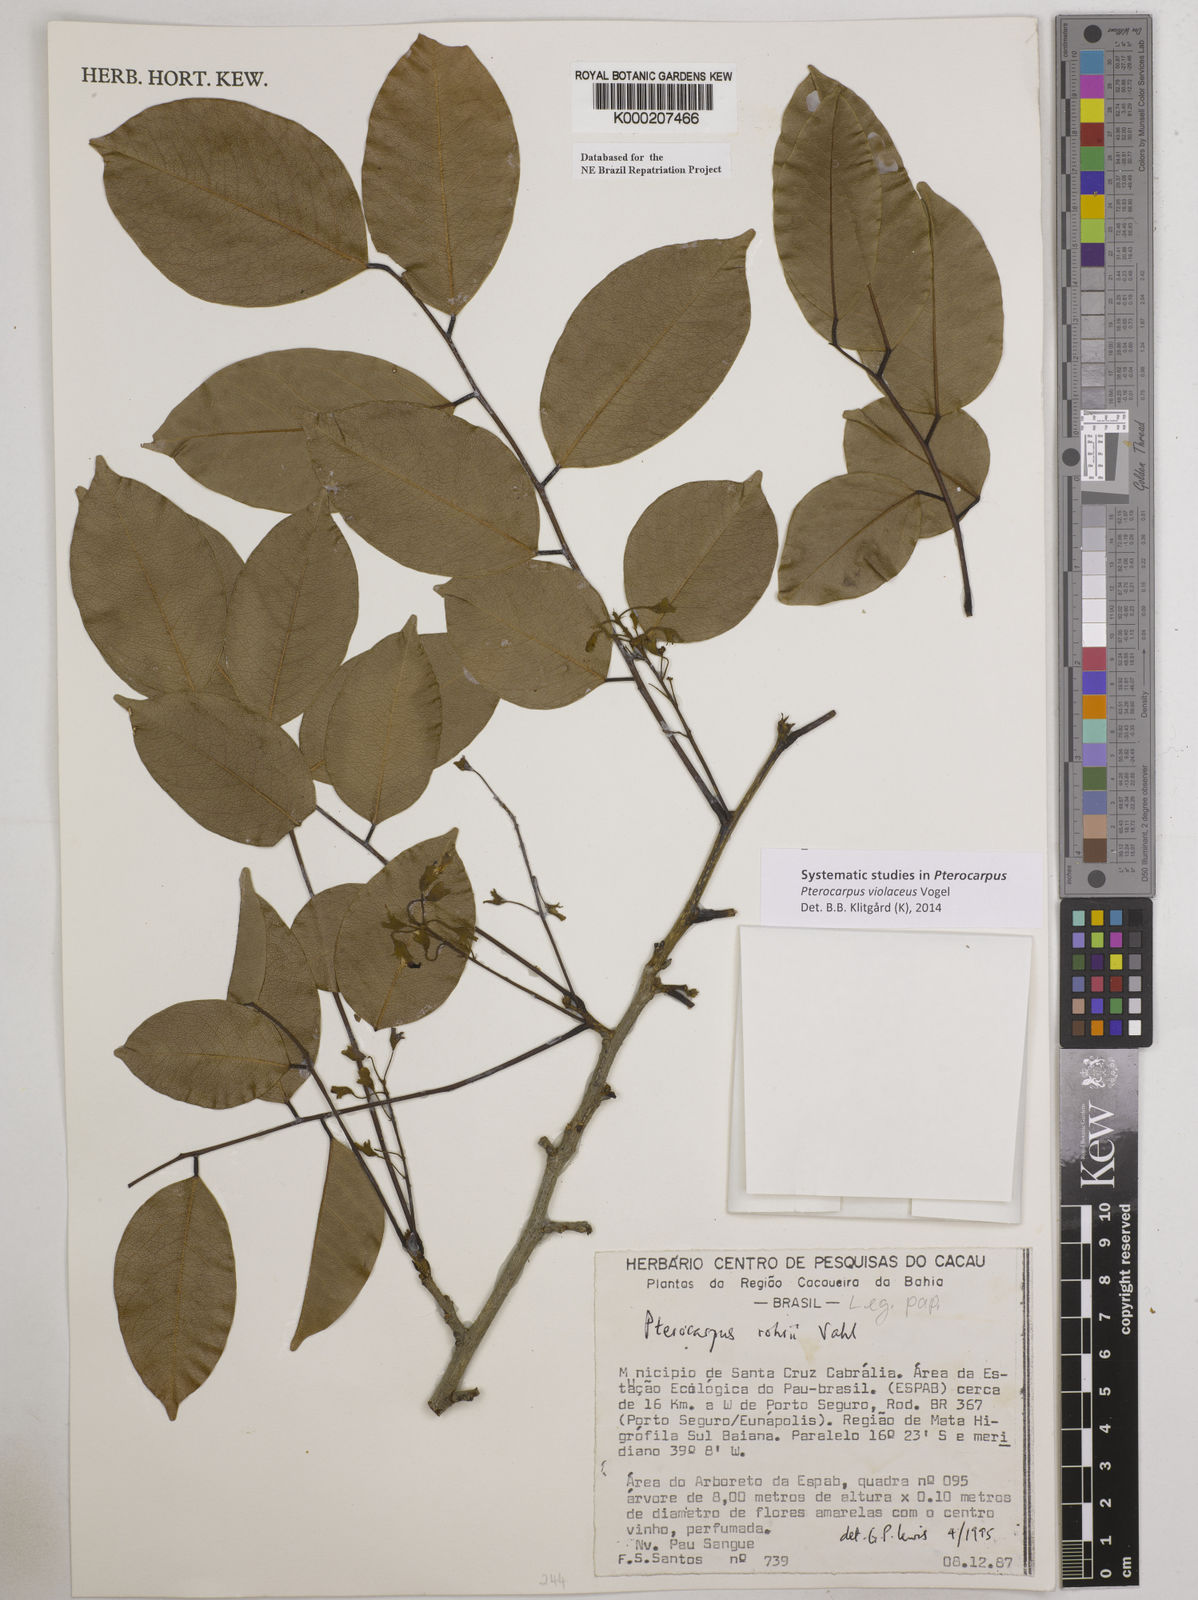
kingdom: Plantae
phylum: Tracheophyta
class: Magnoliopsida
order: Fabales
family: Fabaceae
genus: Pterocarpus
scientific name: Pterocarpus rohrii
